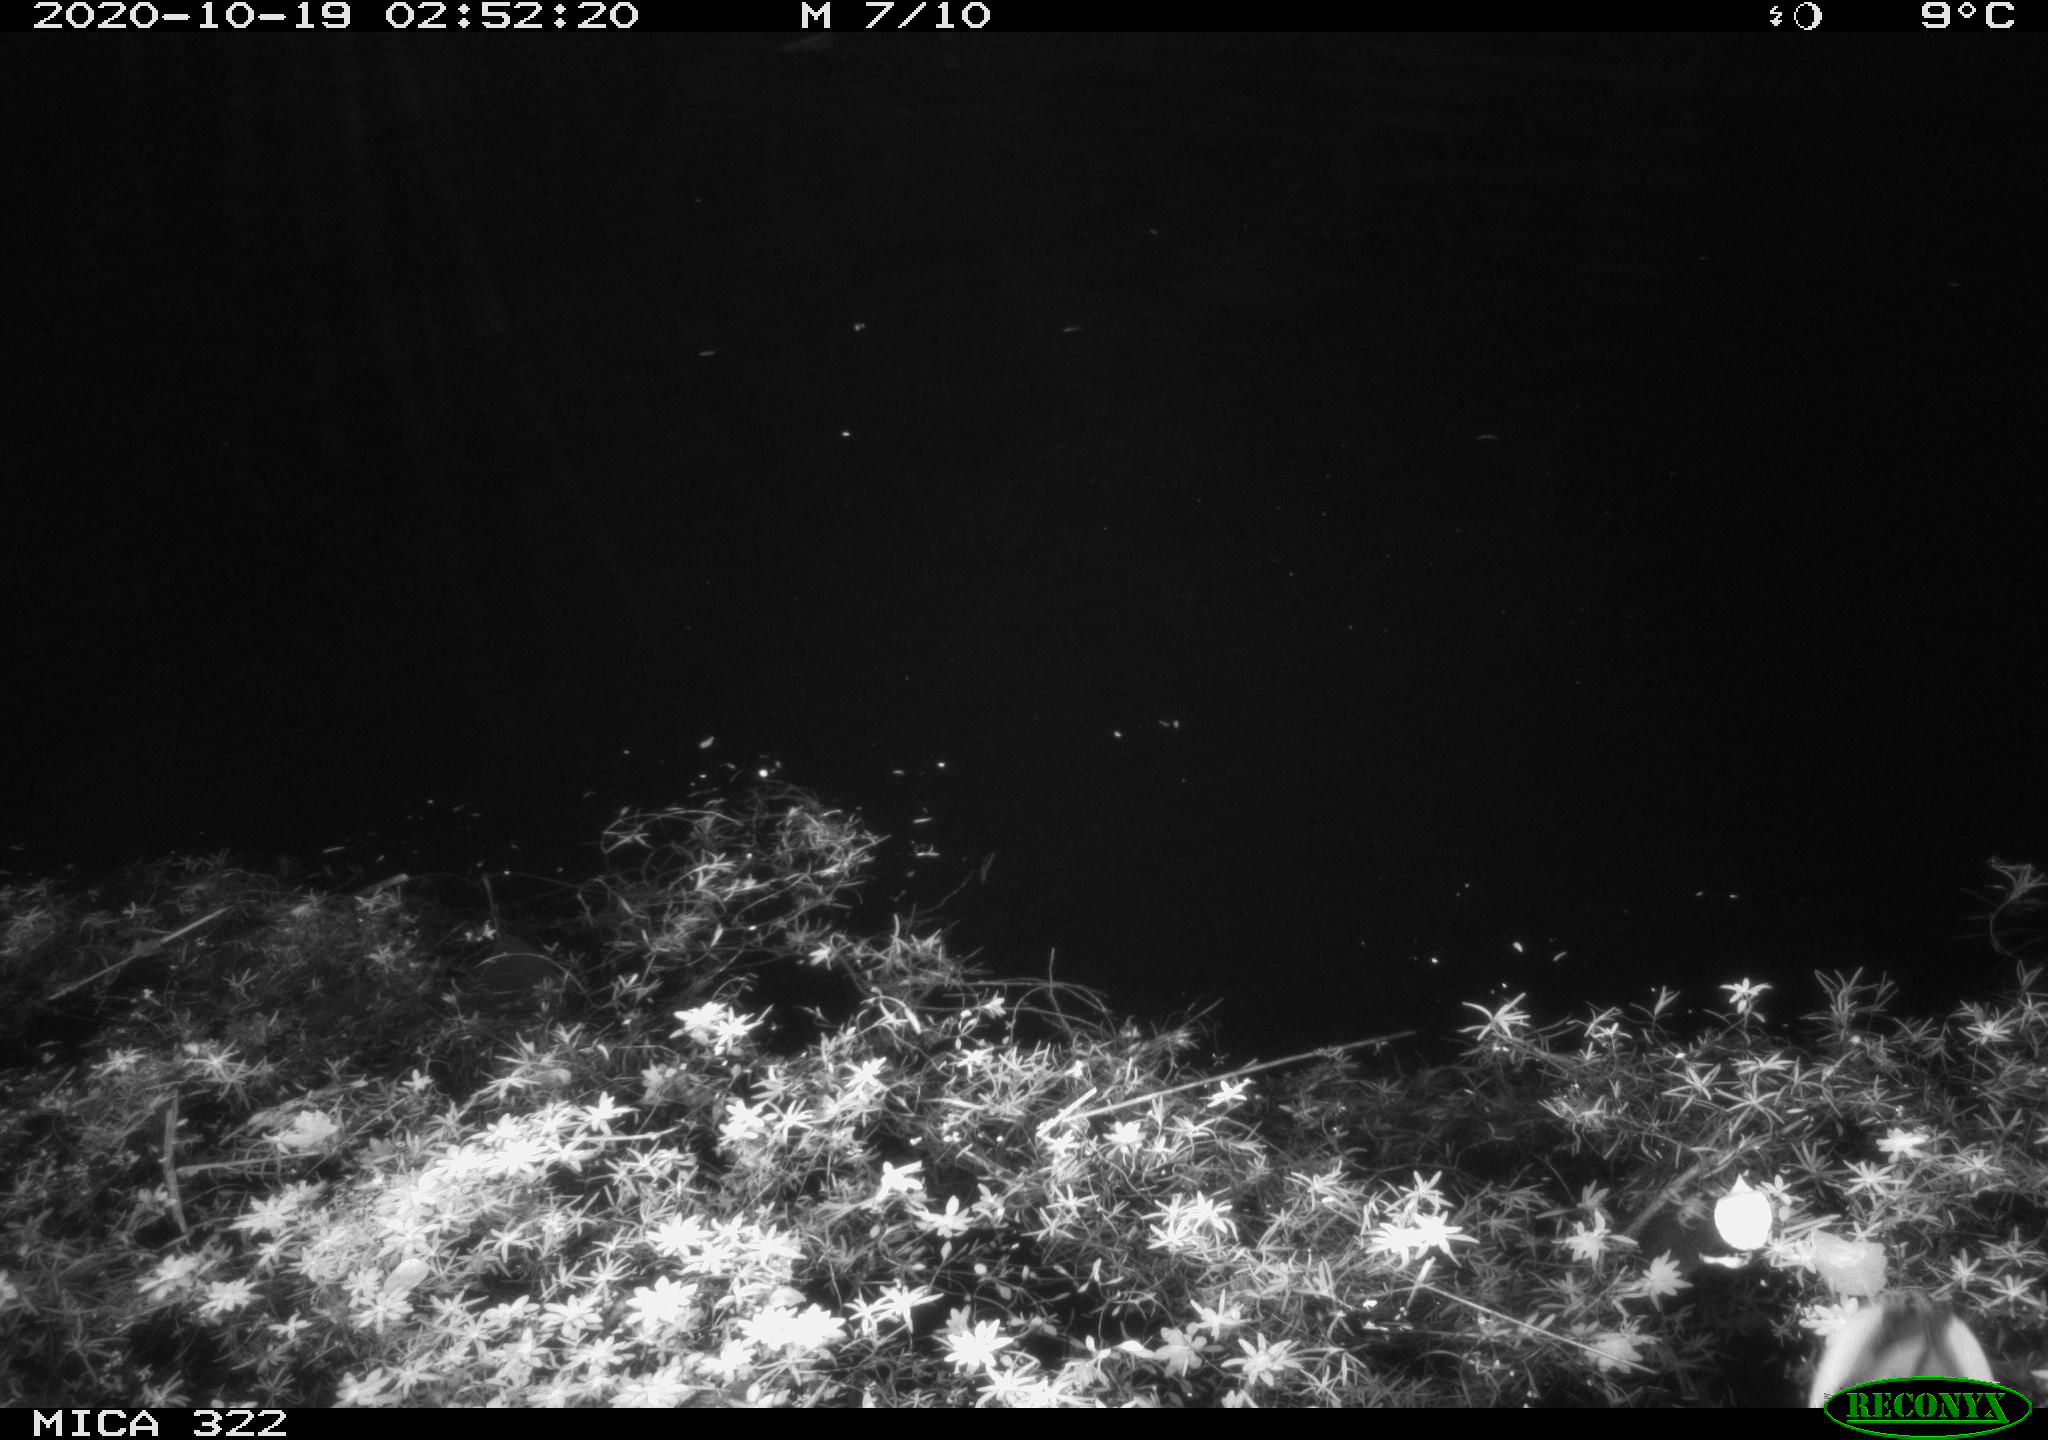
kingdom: Animalia
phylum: Chordata
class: Aves
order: Gruiformes
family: Rallidae
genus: Fulica
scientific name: Fulica atra
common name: Eurasian coot
